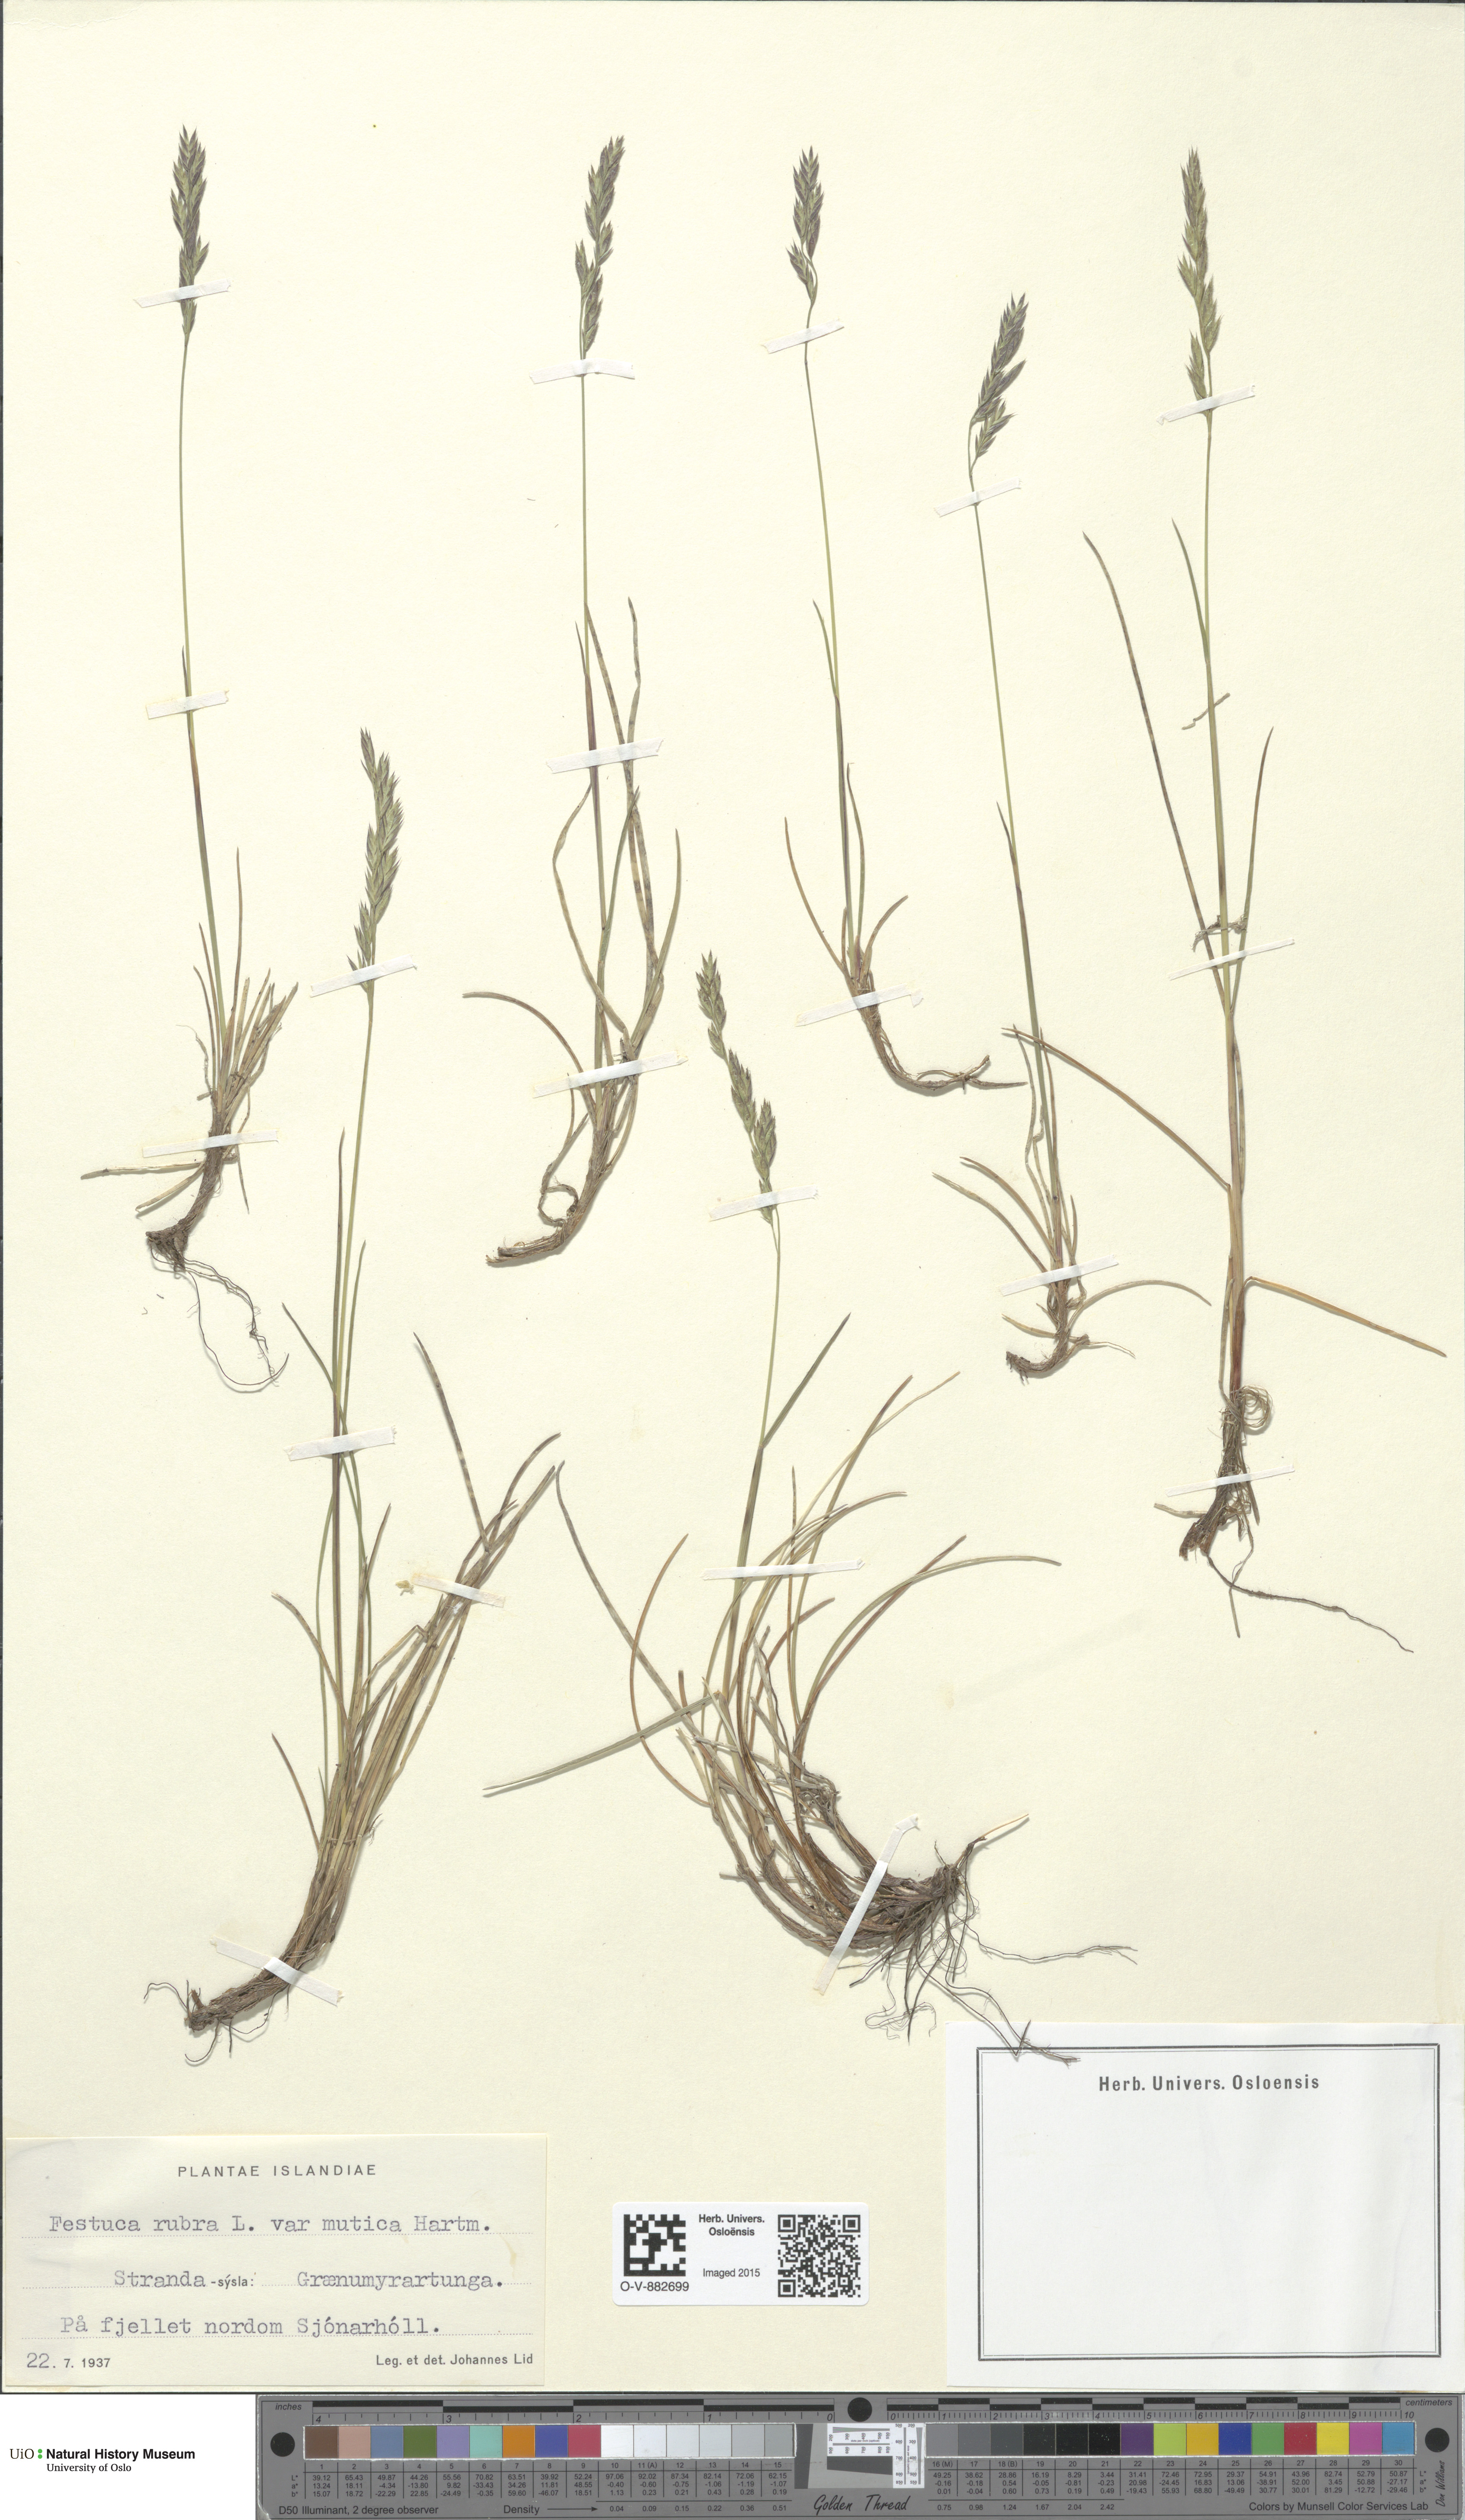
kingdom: Plantae
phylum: Tracheophyta
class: Liliopsida
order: Poales
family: Poaceae
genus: Festuca
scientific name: Festuca richardsonii
